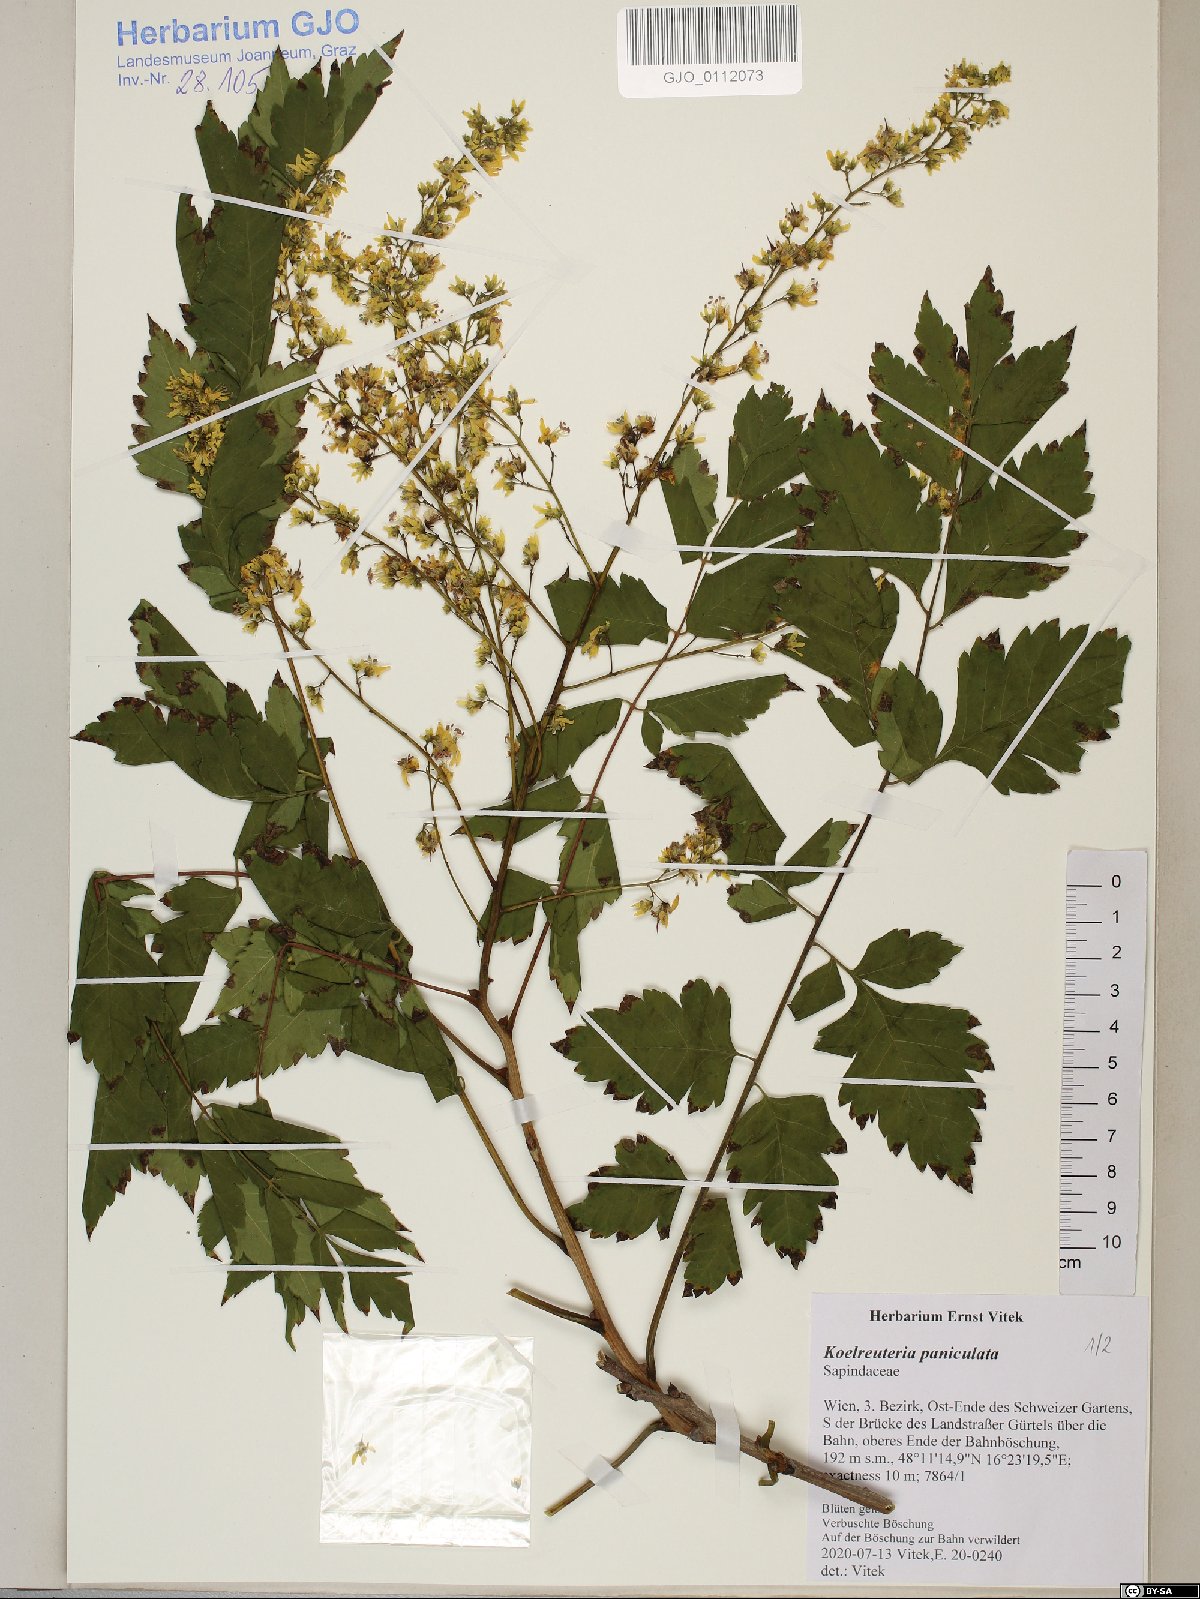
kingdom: Plantae
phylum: Tracheophyta
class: Magnoliopsida
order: Sapindales
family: Sapindaceae
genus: Koelreuteria
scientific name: Koelreuteria paniculata
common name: Pride-of-india
